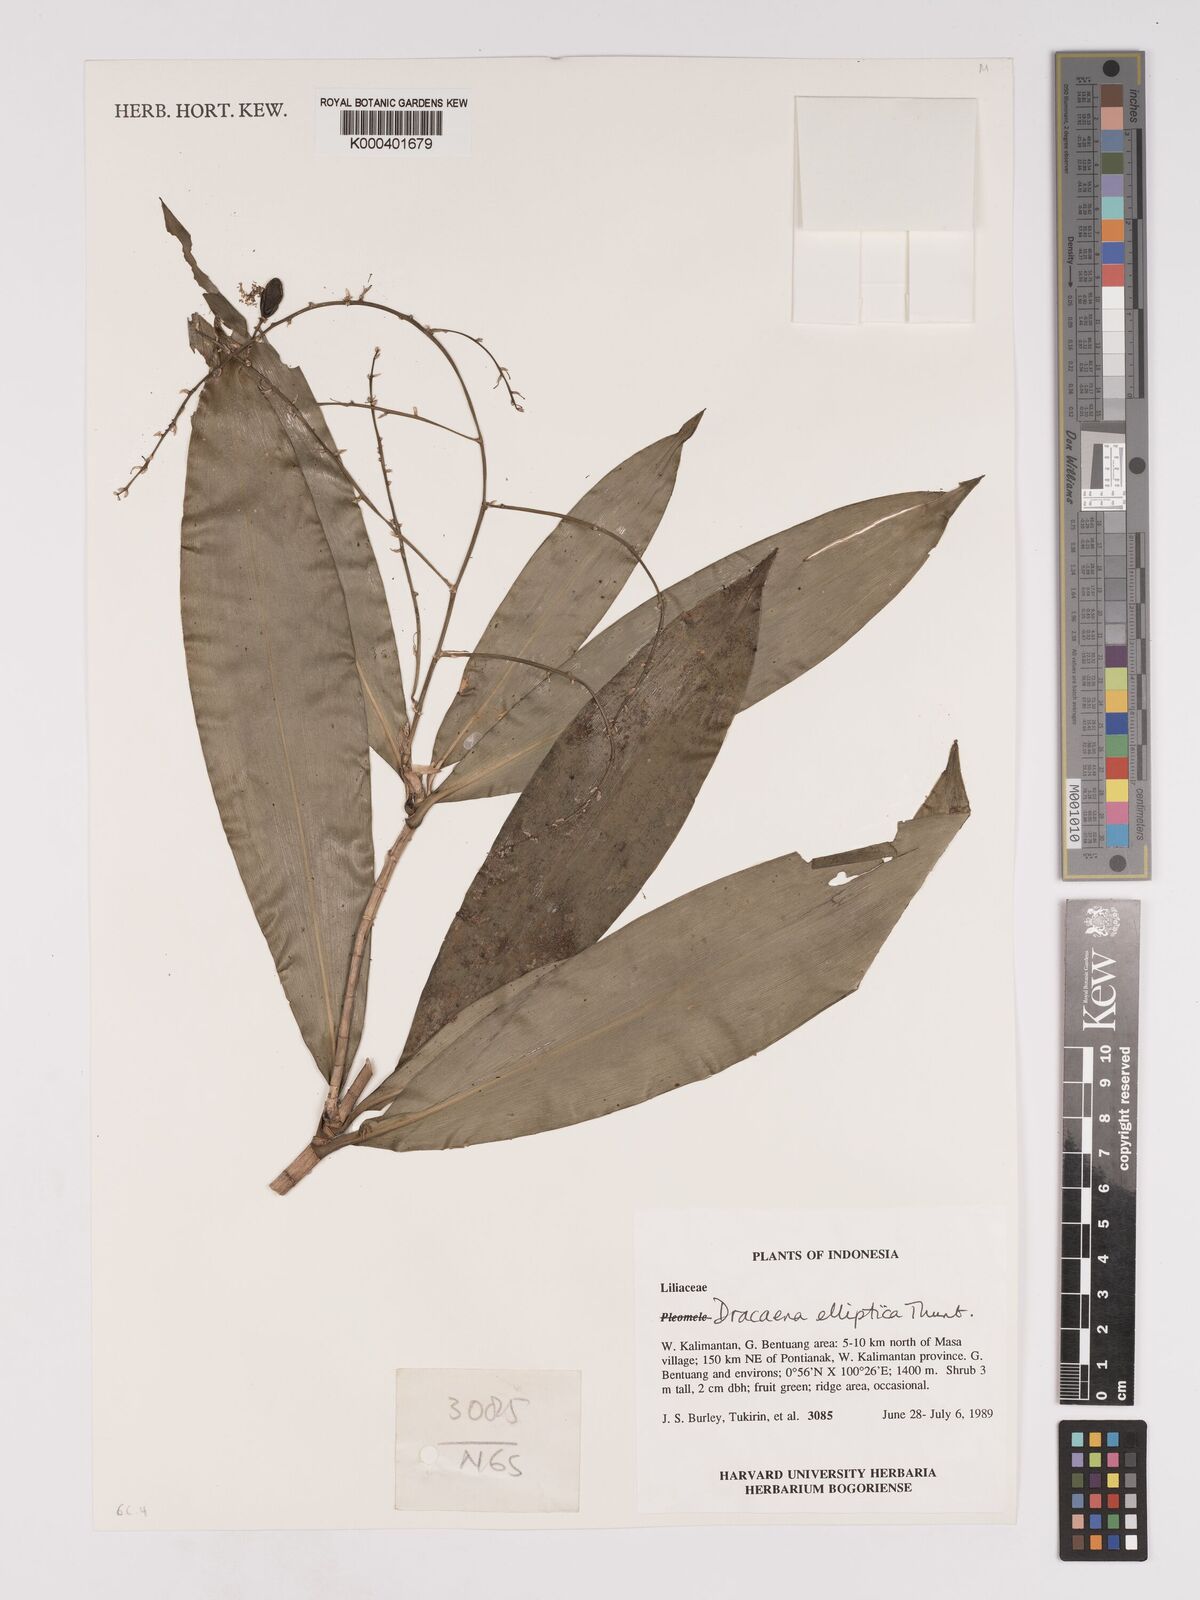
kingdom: Plantae
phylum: Tracheophyta
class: Liliopsida
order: Asparagales
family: Asparagaceae
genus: Dracaena
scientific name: Dracaena elliptica
